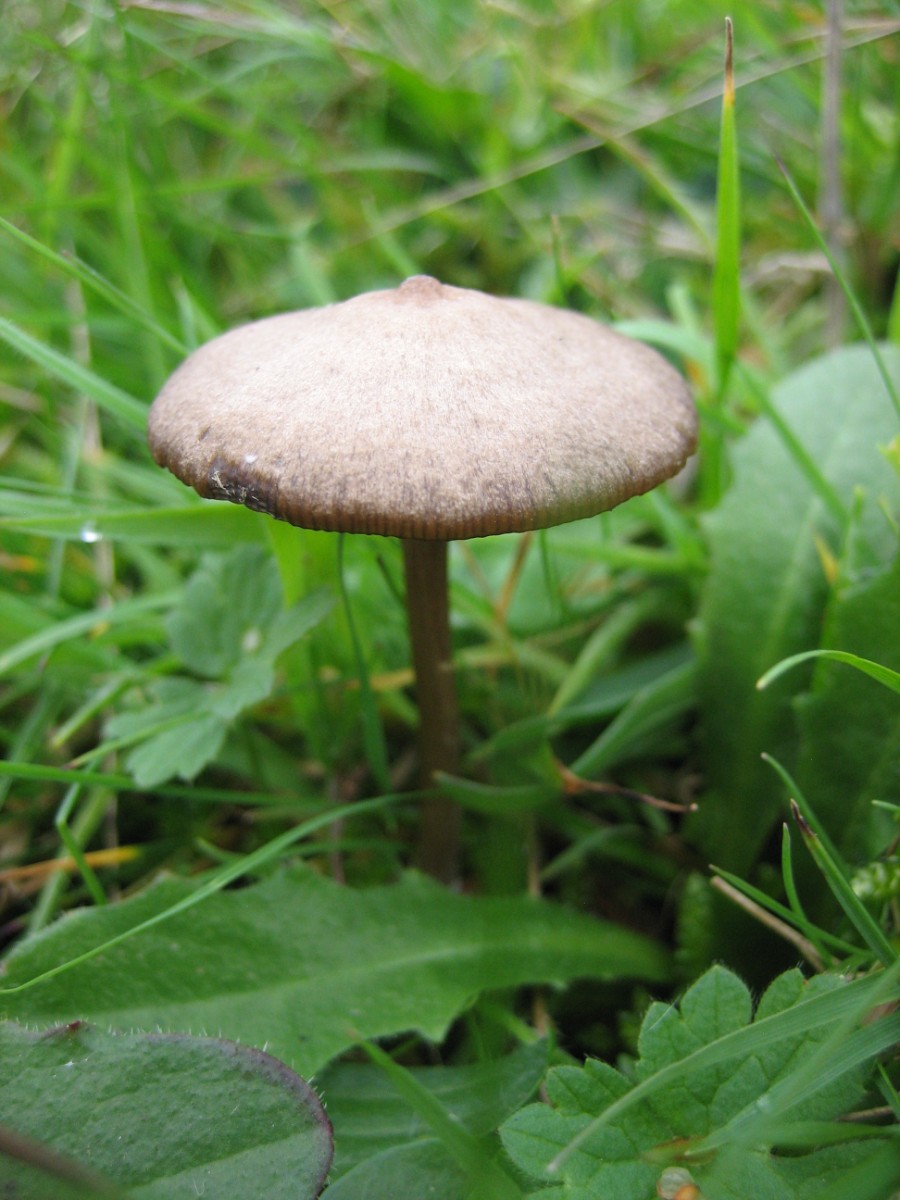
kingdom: Fungi
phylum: Basidiomycota
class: Agaricomycetes
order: Agaricales
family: Entolomataceae
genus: Entoloma
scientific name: Entoloma
